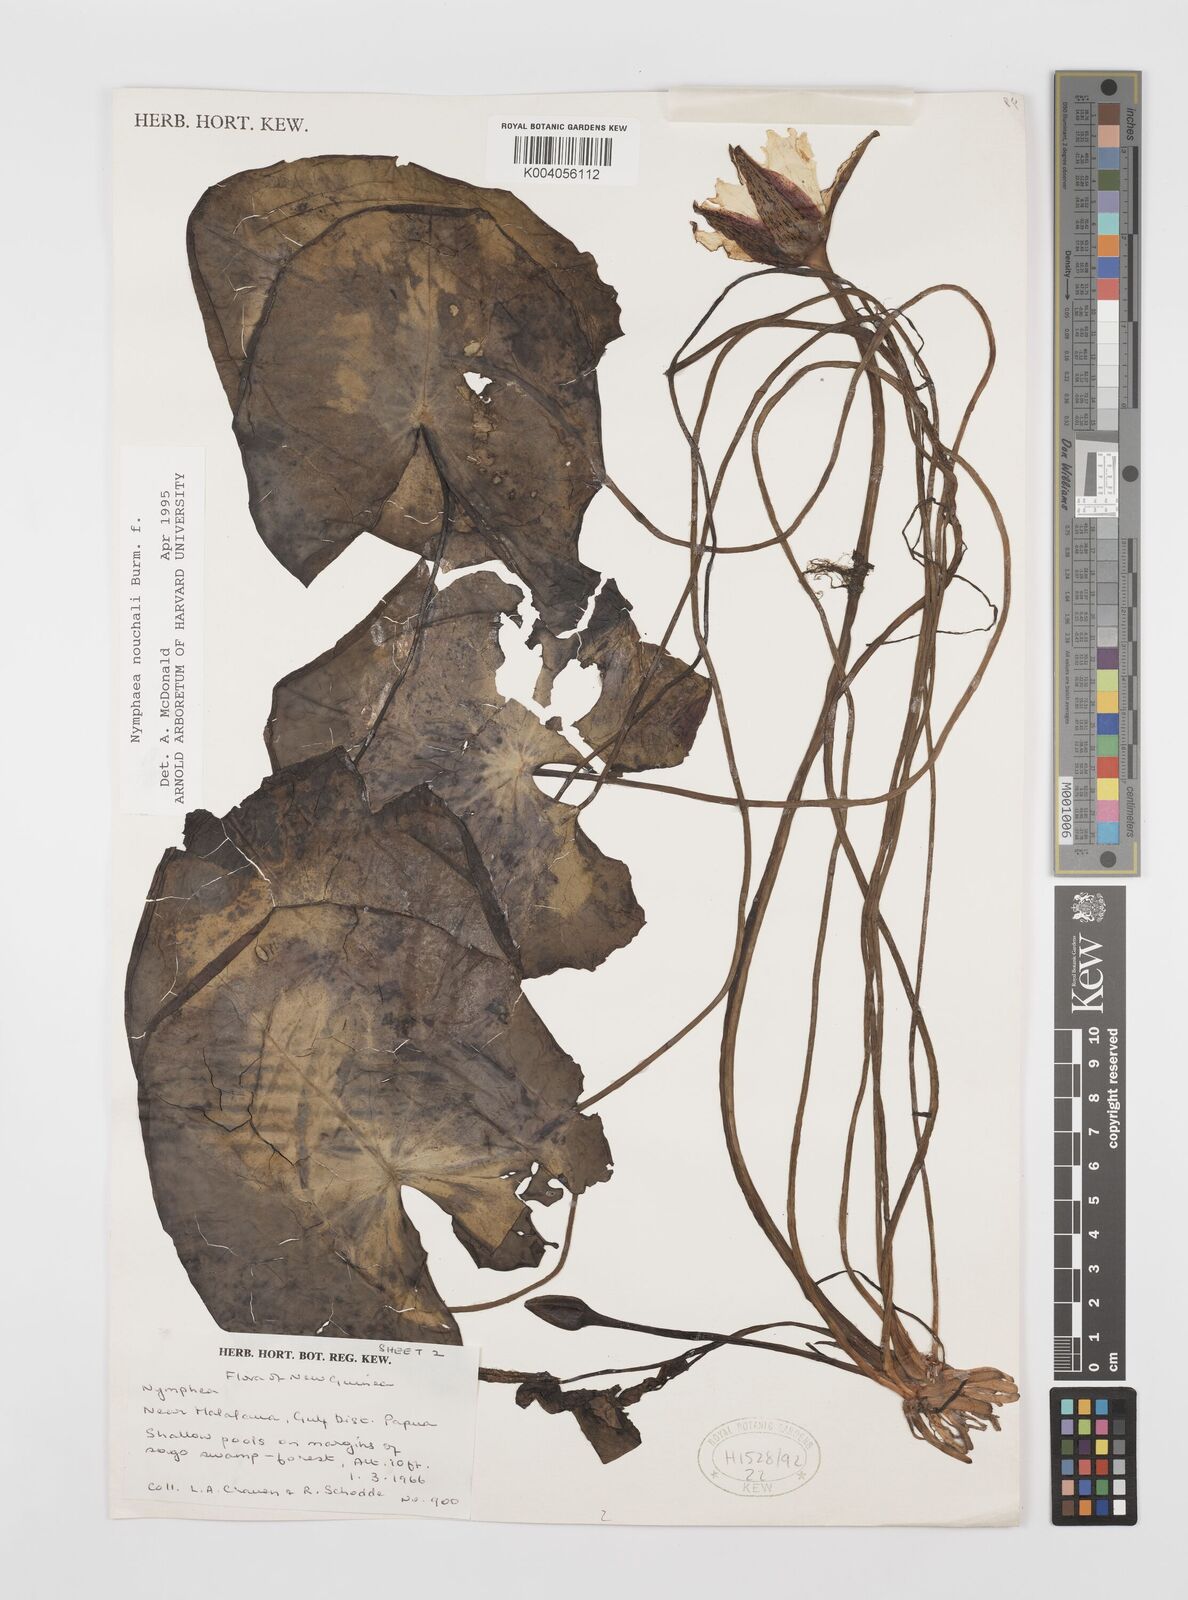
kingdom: Plantae
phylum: Tracheophyta
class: Magnoliopsida
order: Nymphaeales
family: Nymphaeaceae
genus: Nymphaea
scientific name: Nymphaea nouchali
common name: Blue lotus
